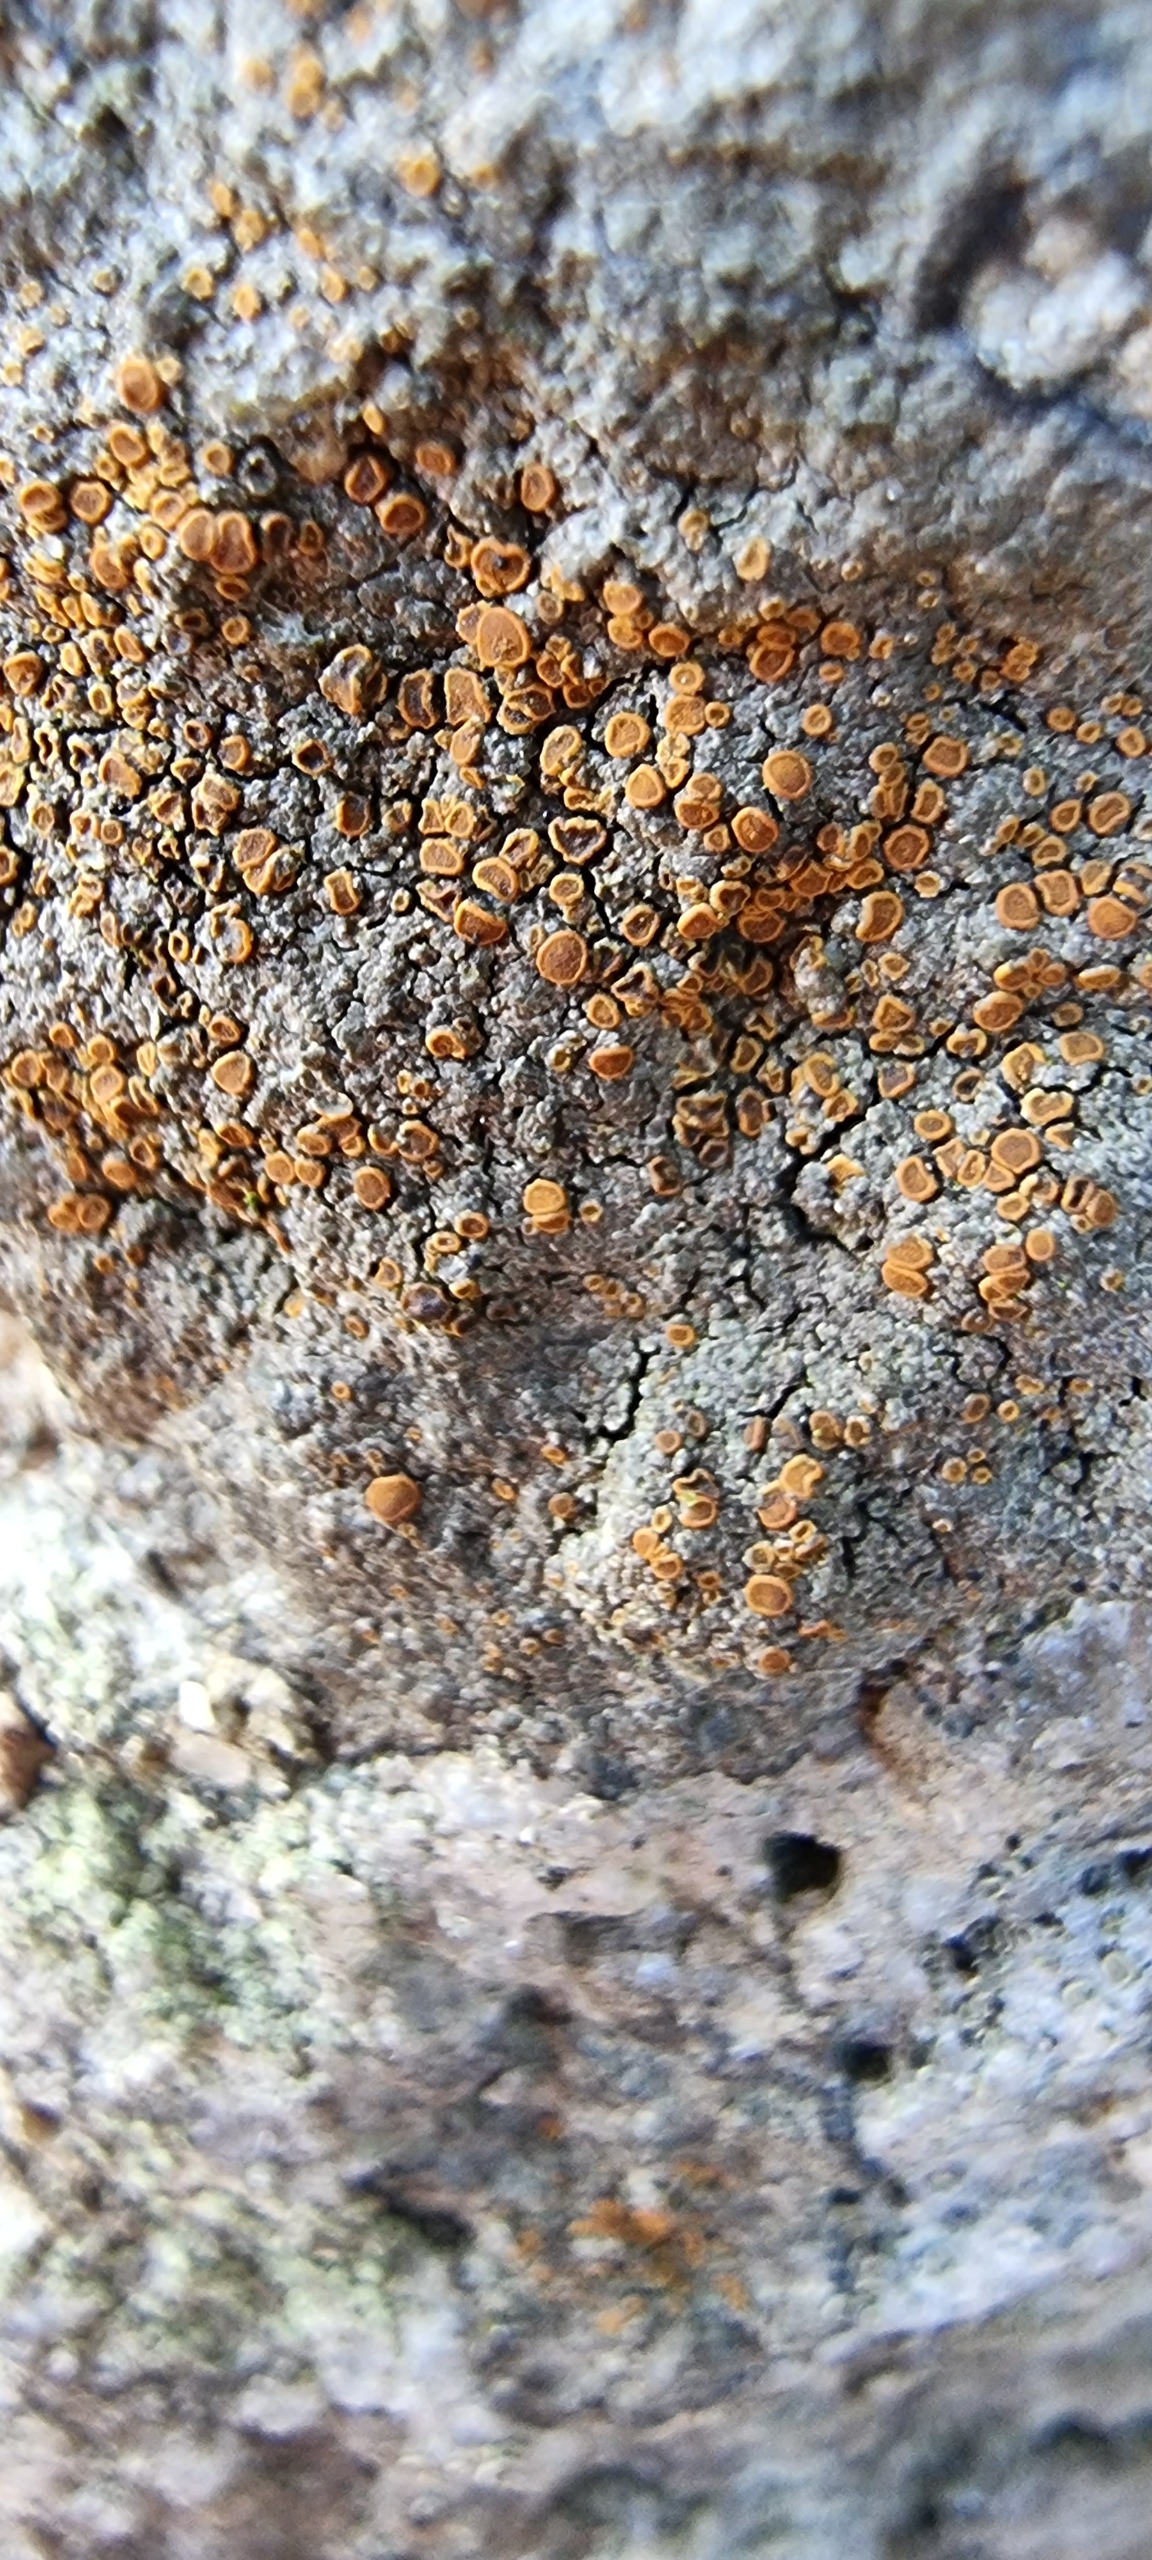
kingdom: Fungi
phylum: Ascomycota
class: Lecanoromycetes
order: Teloschistales
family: Teloschistaceae
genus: Blastenia
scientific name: Blastenia crenularia
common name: Pyntelig orangelav
